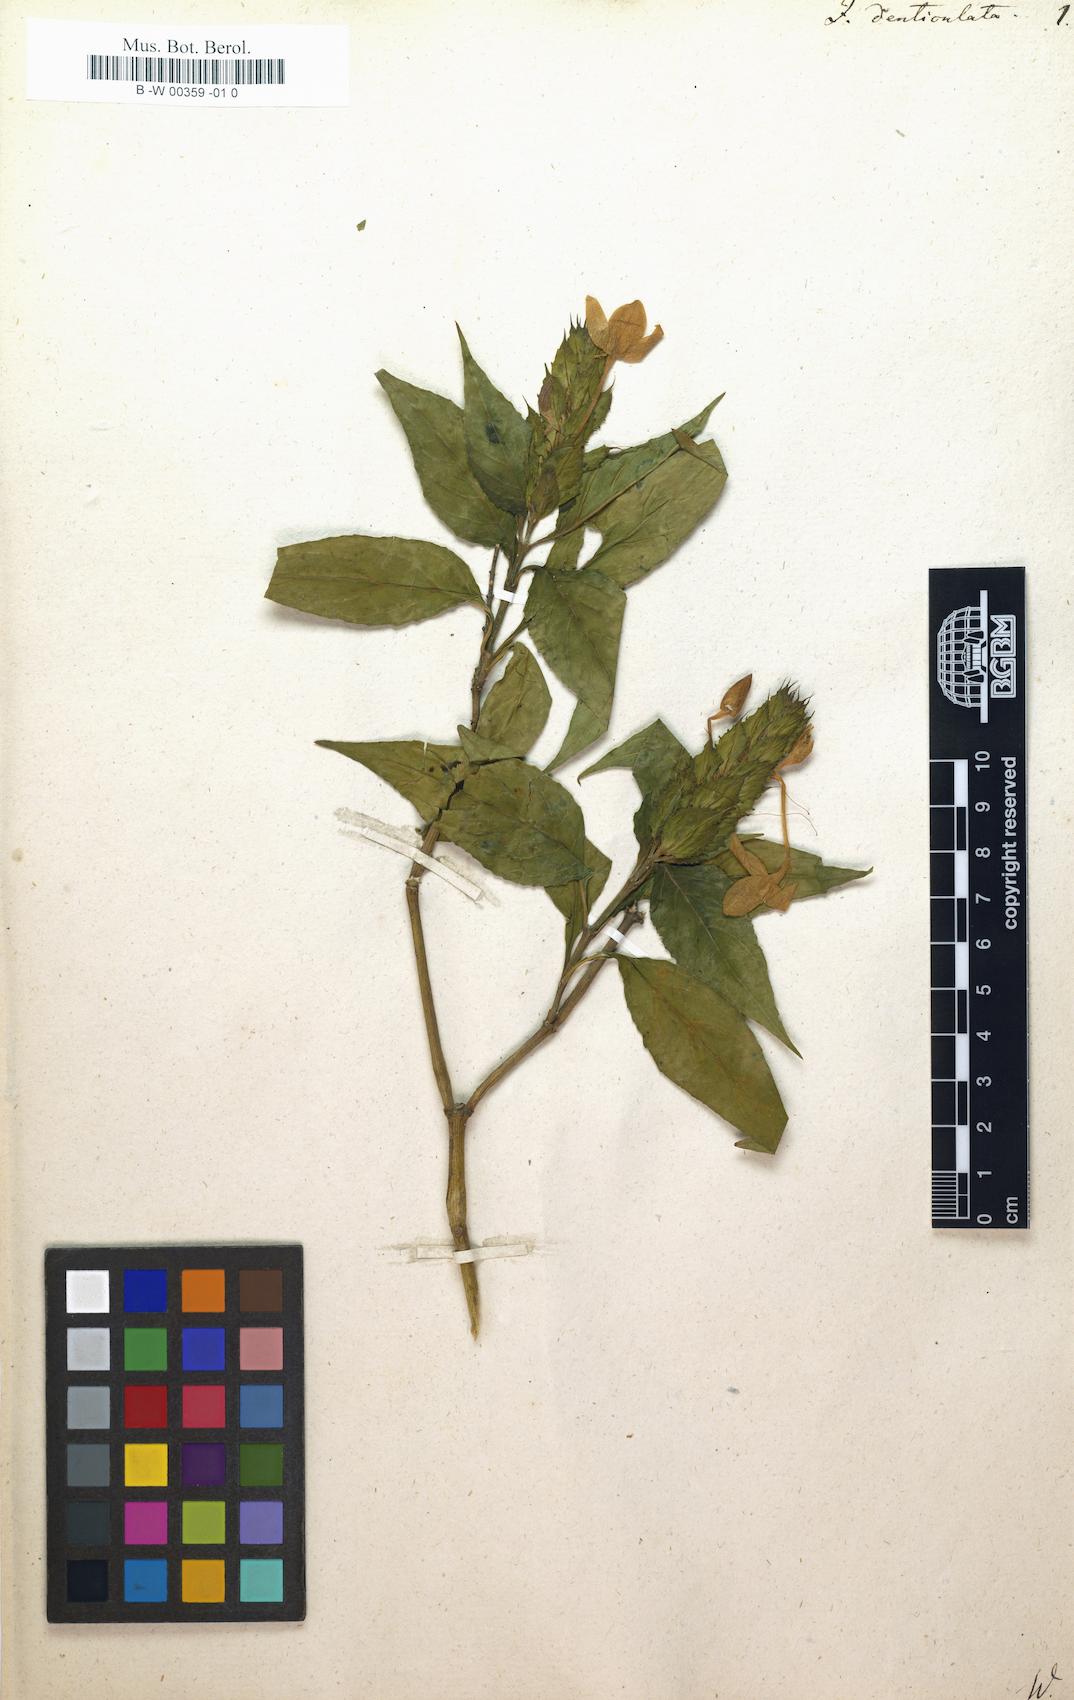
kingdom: Plantae
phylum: Tracheophyta
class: Magnoliopsida
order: Lamiales
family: Acanthaceae
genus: Ecbolium
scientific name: Ecbolium ligustrinum
